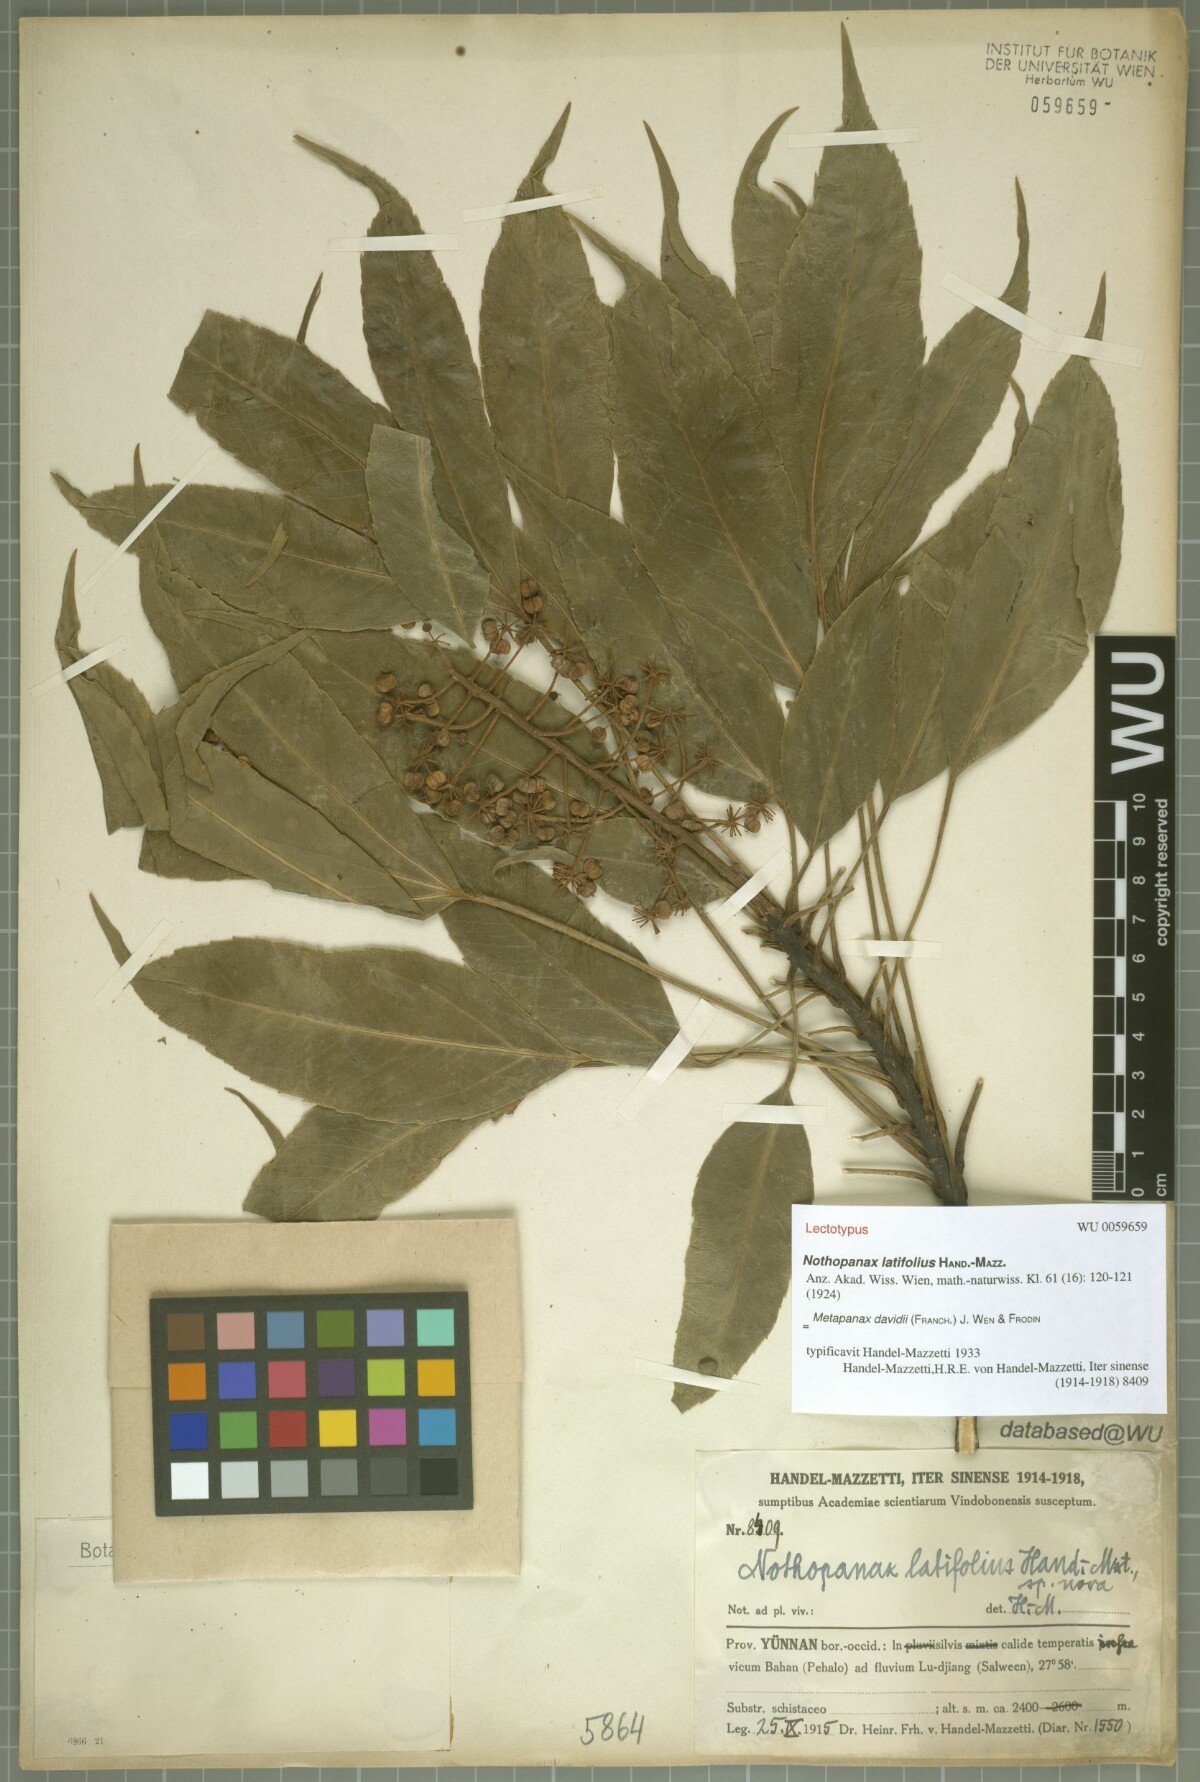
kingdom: Plantae
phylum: Tracheophyta
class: Magnoliopsida
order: Apiales
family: Araliaceae
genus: Metapanax
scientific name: Metapanax davidii
